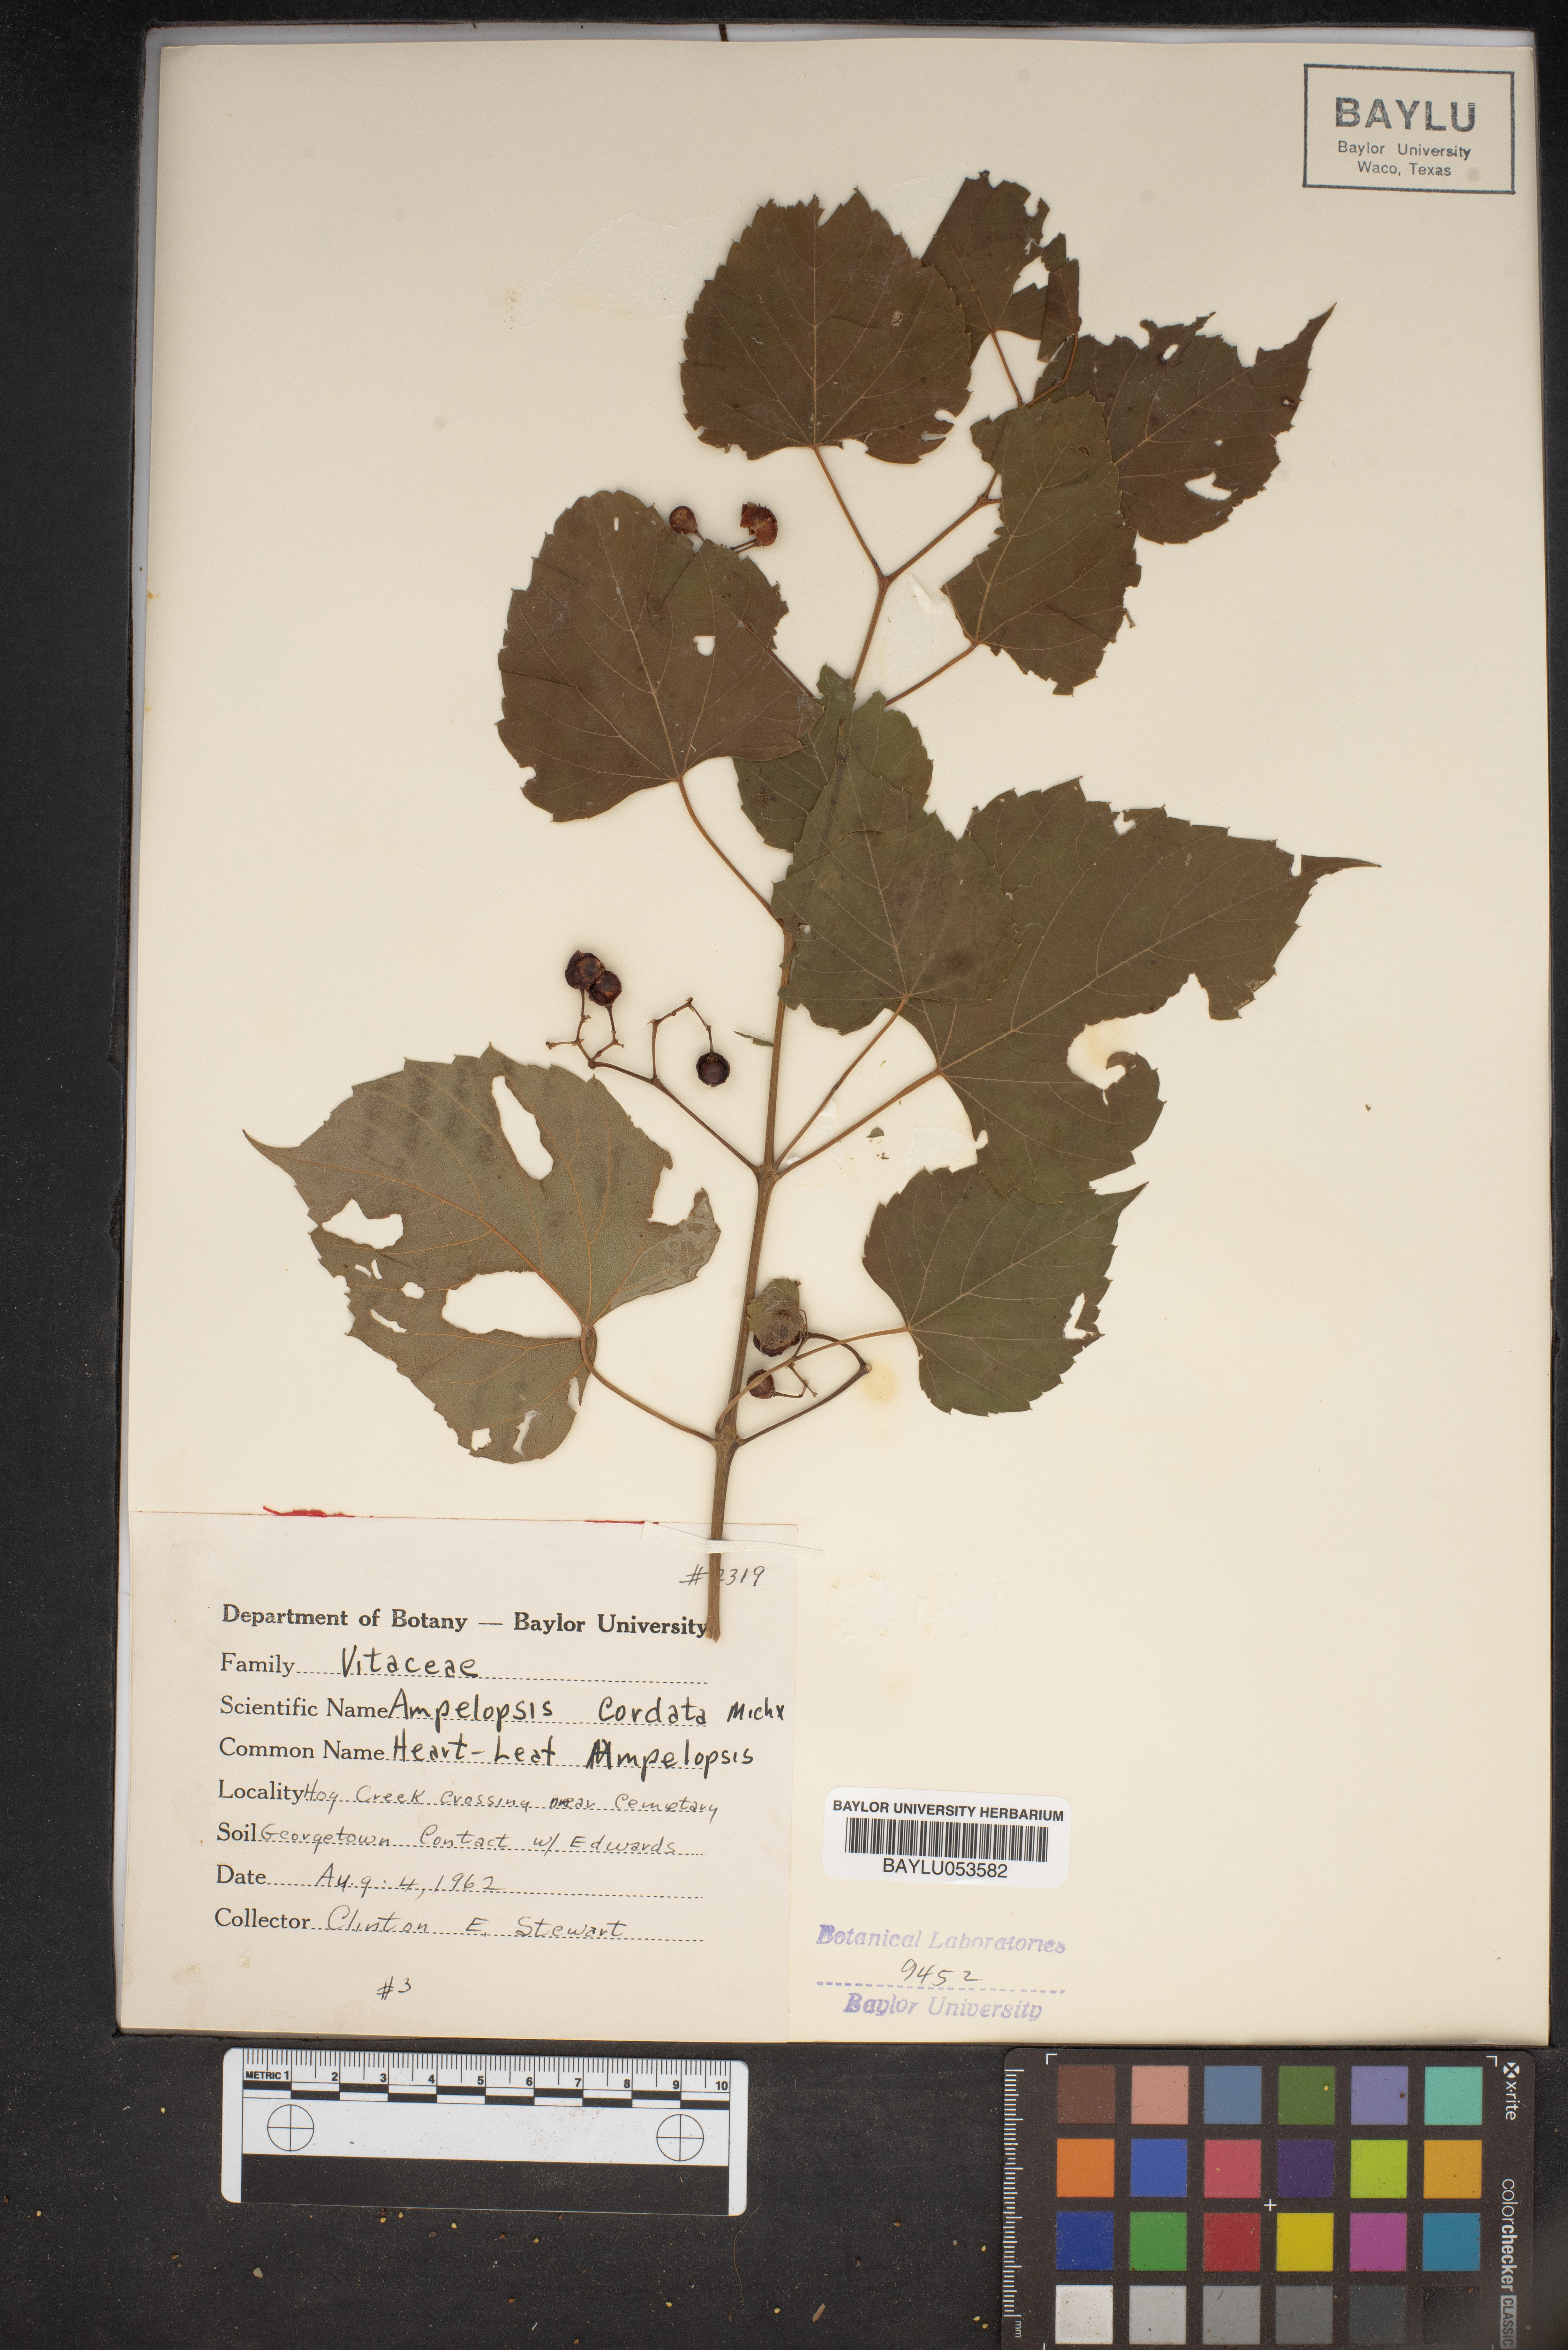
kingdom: Plantae
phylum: Tracheophyta
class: Magnoliopsida
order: Vitales
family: Vitaceae
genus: Ampelopsis
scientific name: Ampelopsis cordata
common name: Heart-leaf ampelopsis
